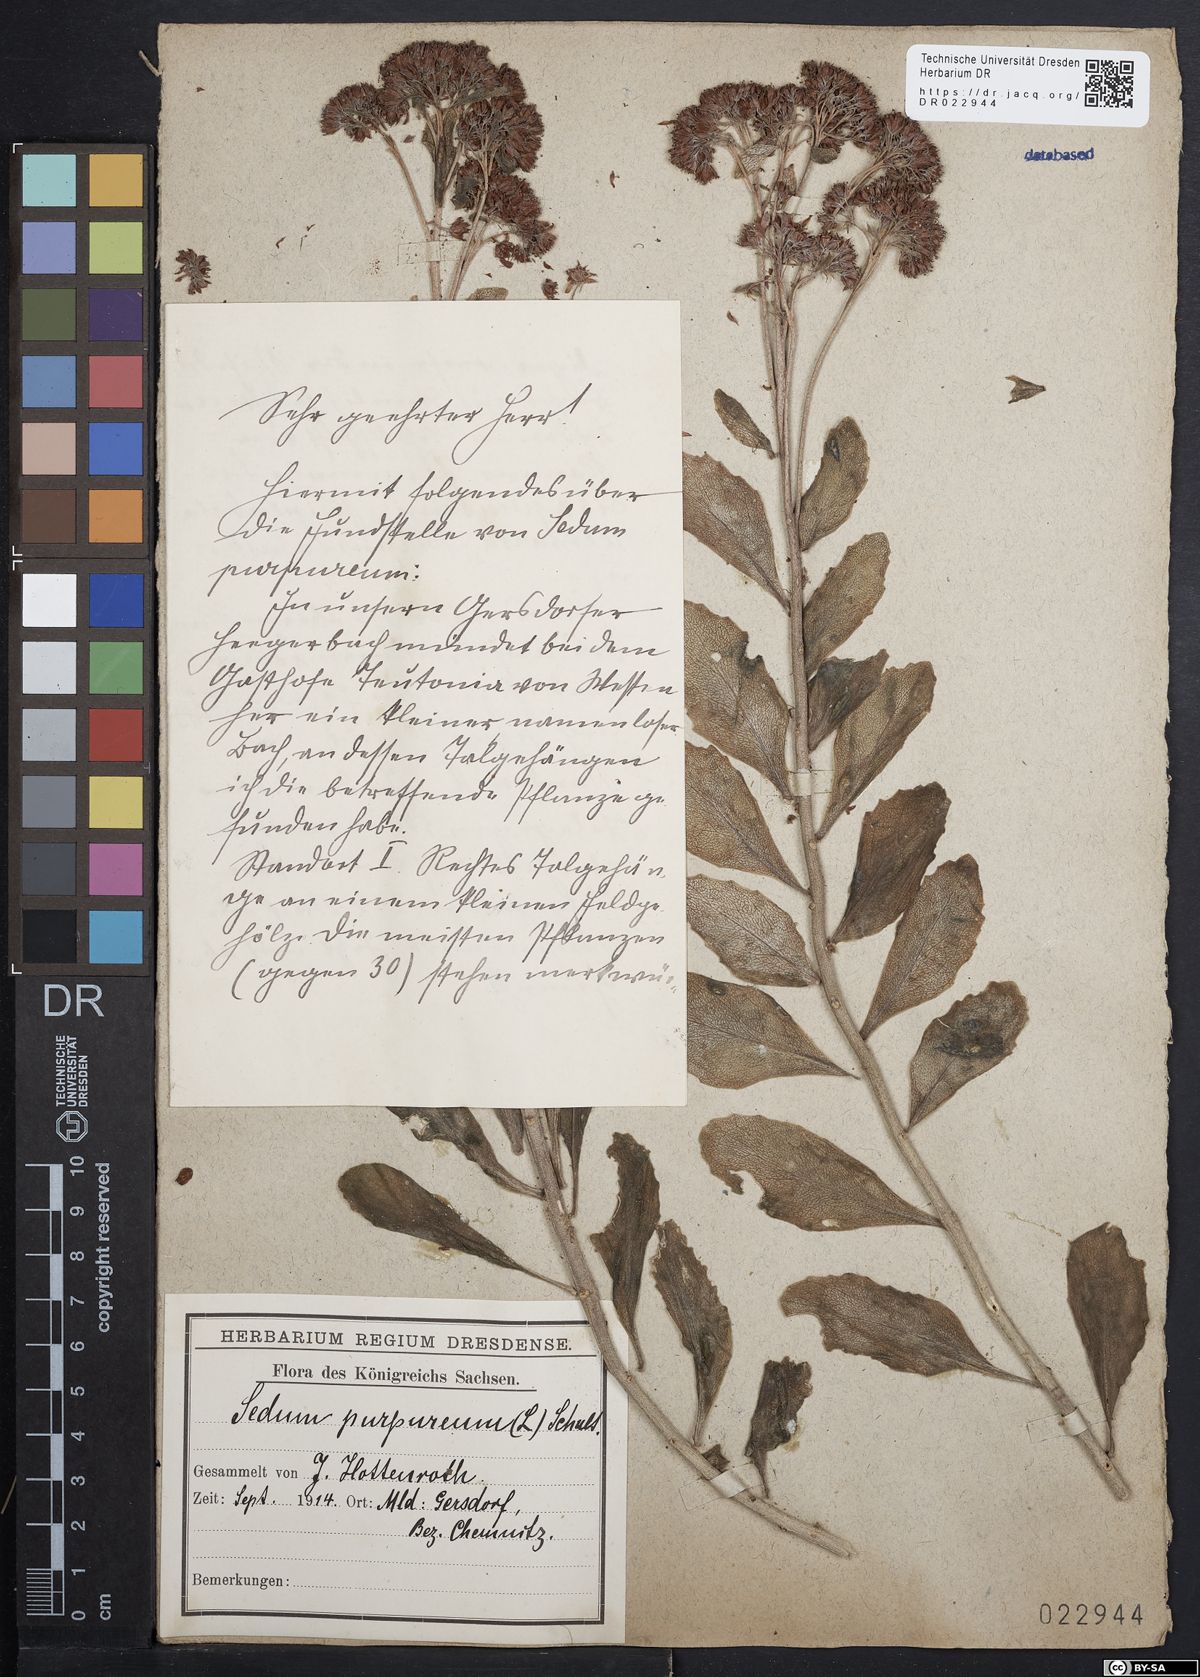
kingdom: Plantae
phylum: Tracheophyta
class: Magnoliopsida
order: Saxifragales
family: Crassulaceae
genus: Hylotelephium
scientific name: Hylotelephium telephium
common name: Live-forever
